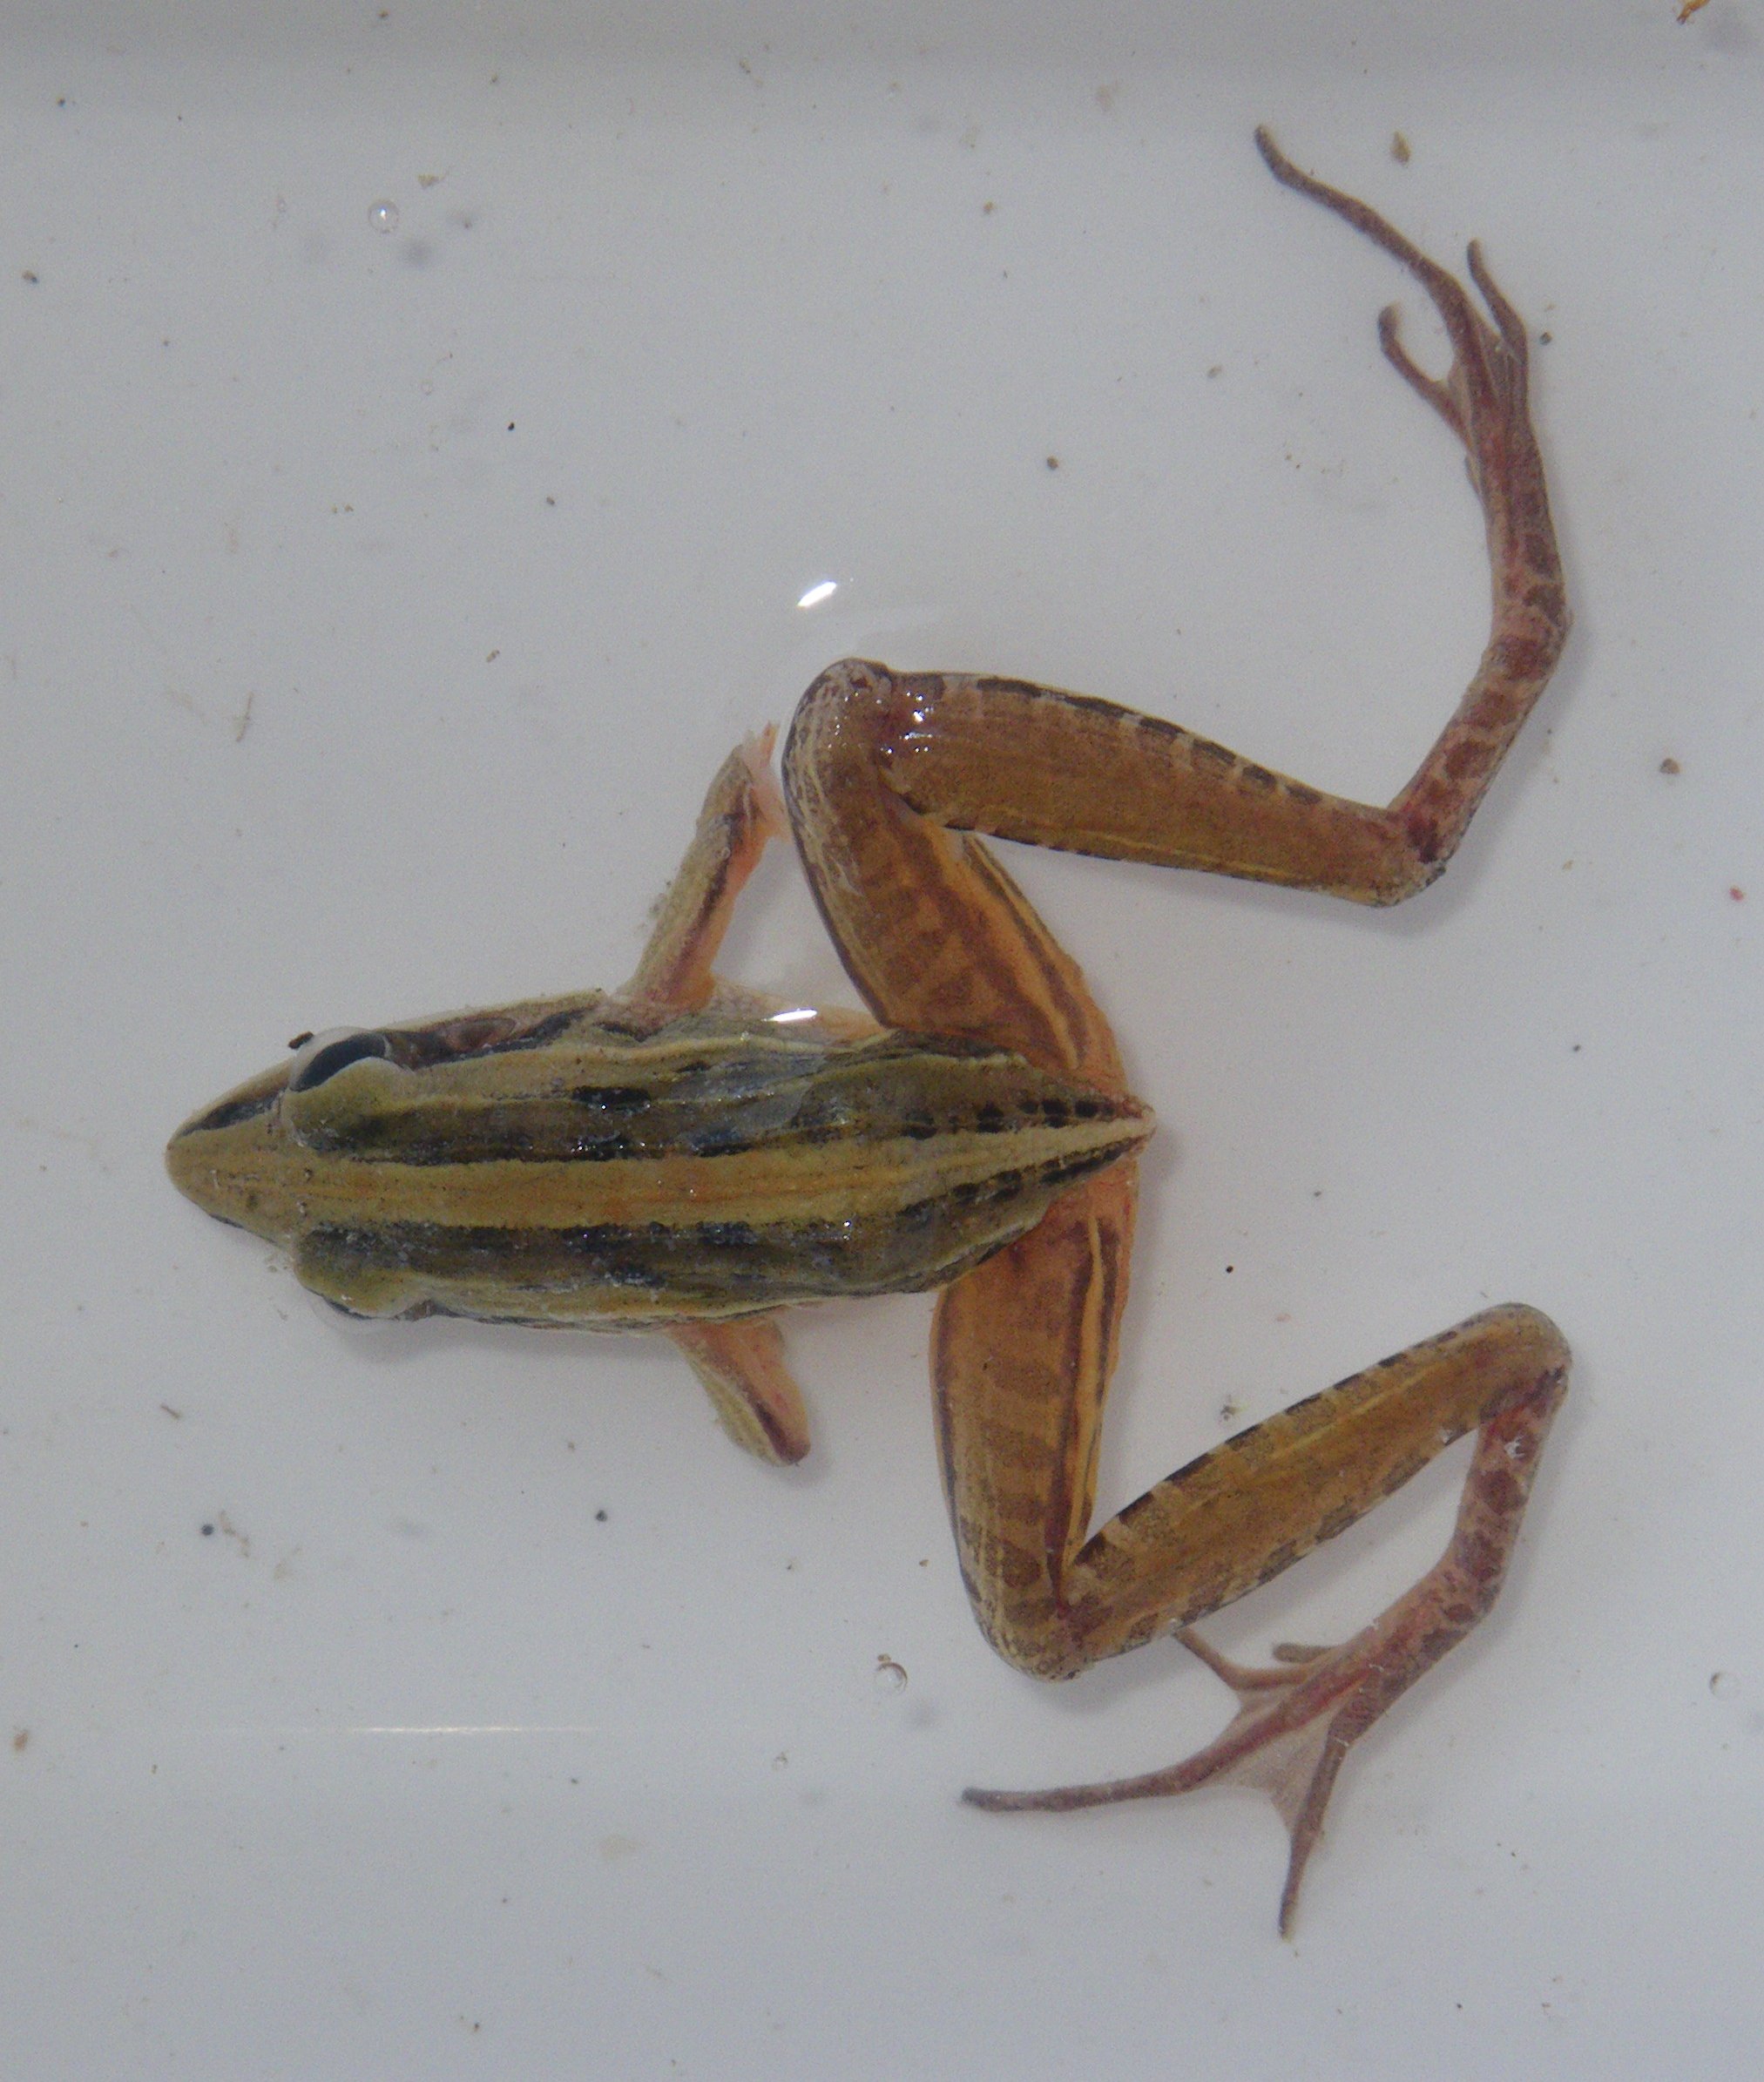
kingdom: Animalia
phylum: Chordata
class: Amphibia
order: Anura
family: Ptychadenidae
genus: Ptychadena
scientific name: Ptychadena guibei
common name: Guibe's grassland frog
